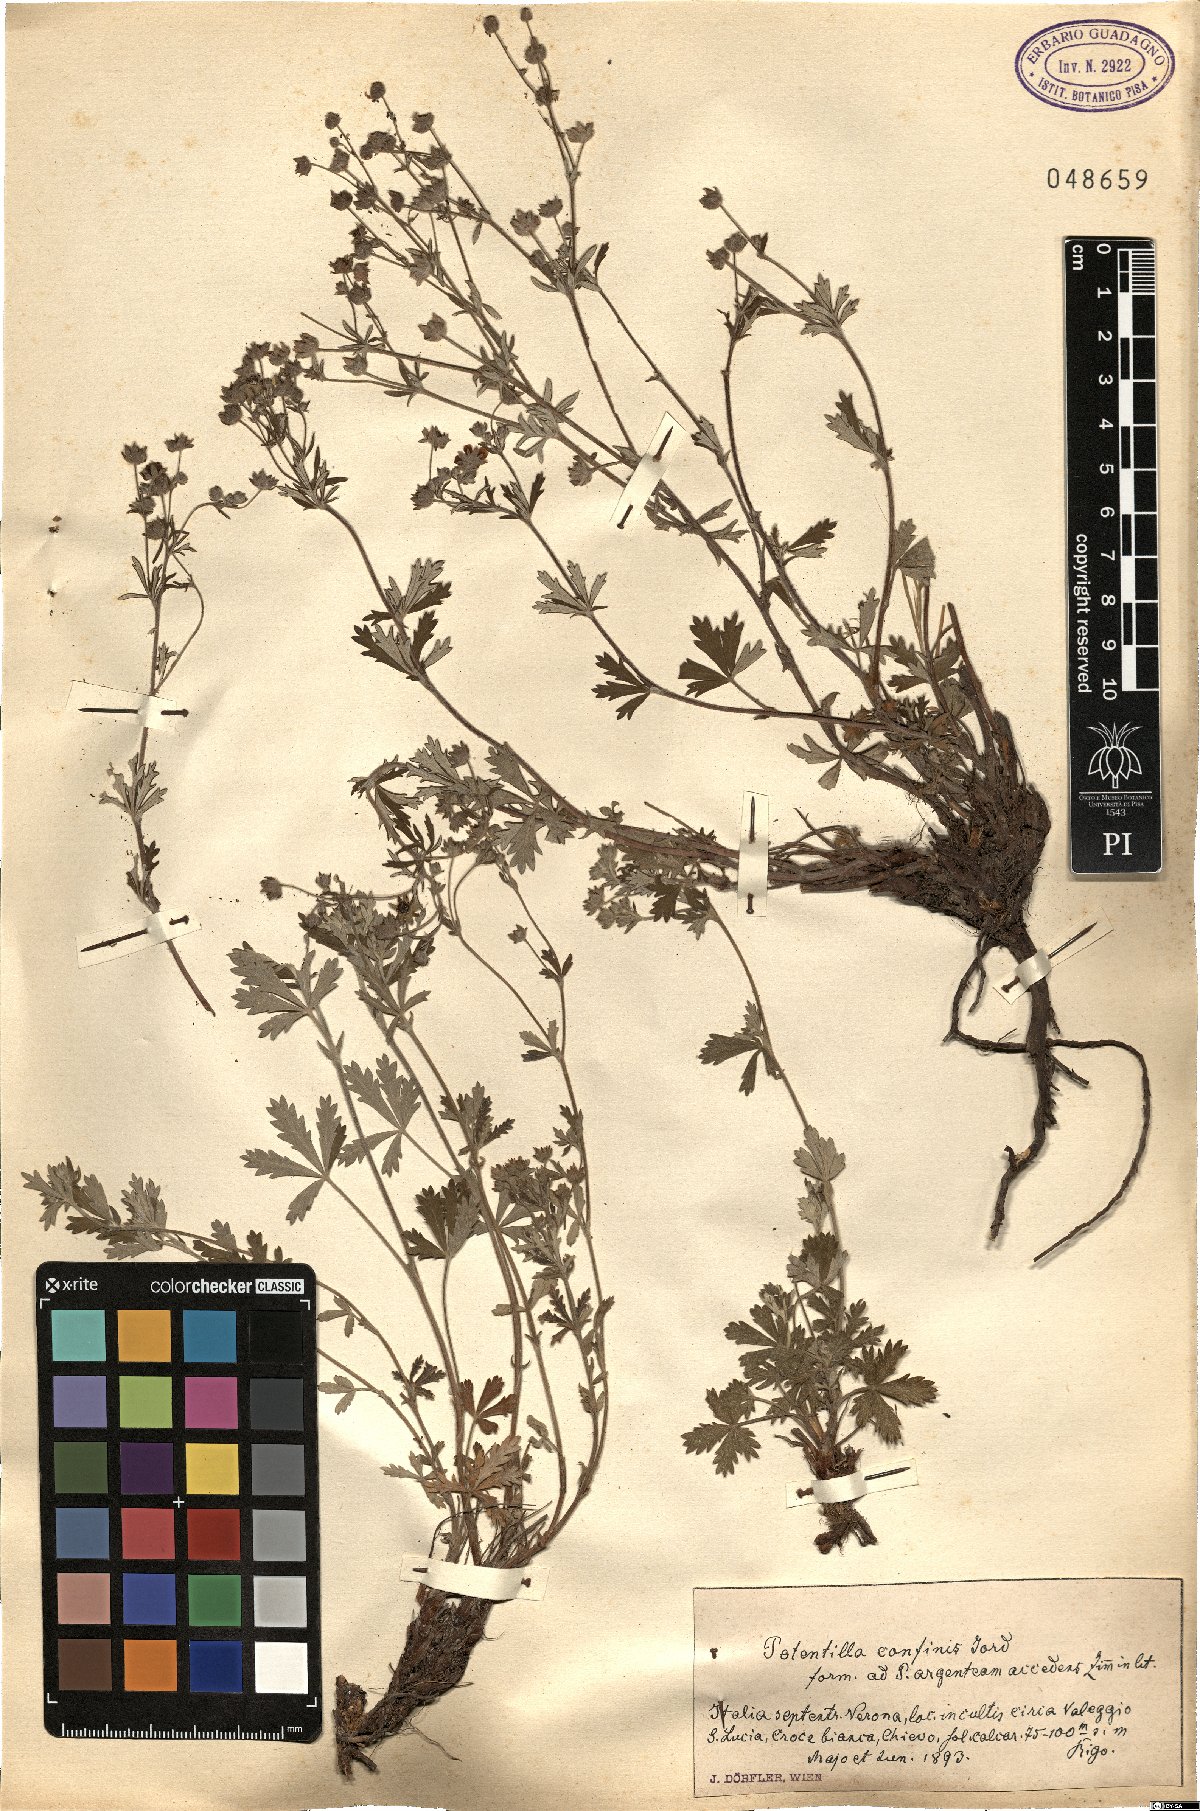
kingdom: Plantae
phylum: Tracheophyta
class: Magnoliopsida
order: Rosales
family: Rosaceae
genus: Potentilla
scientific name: Potentilla argentea
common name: Hoary cinquefoil
